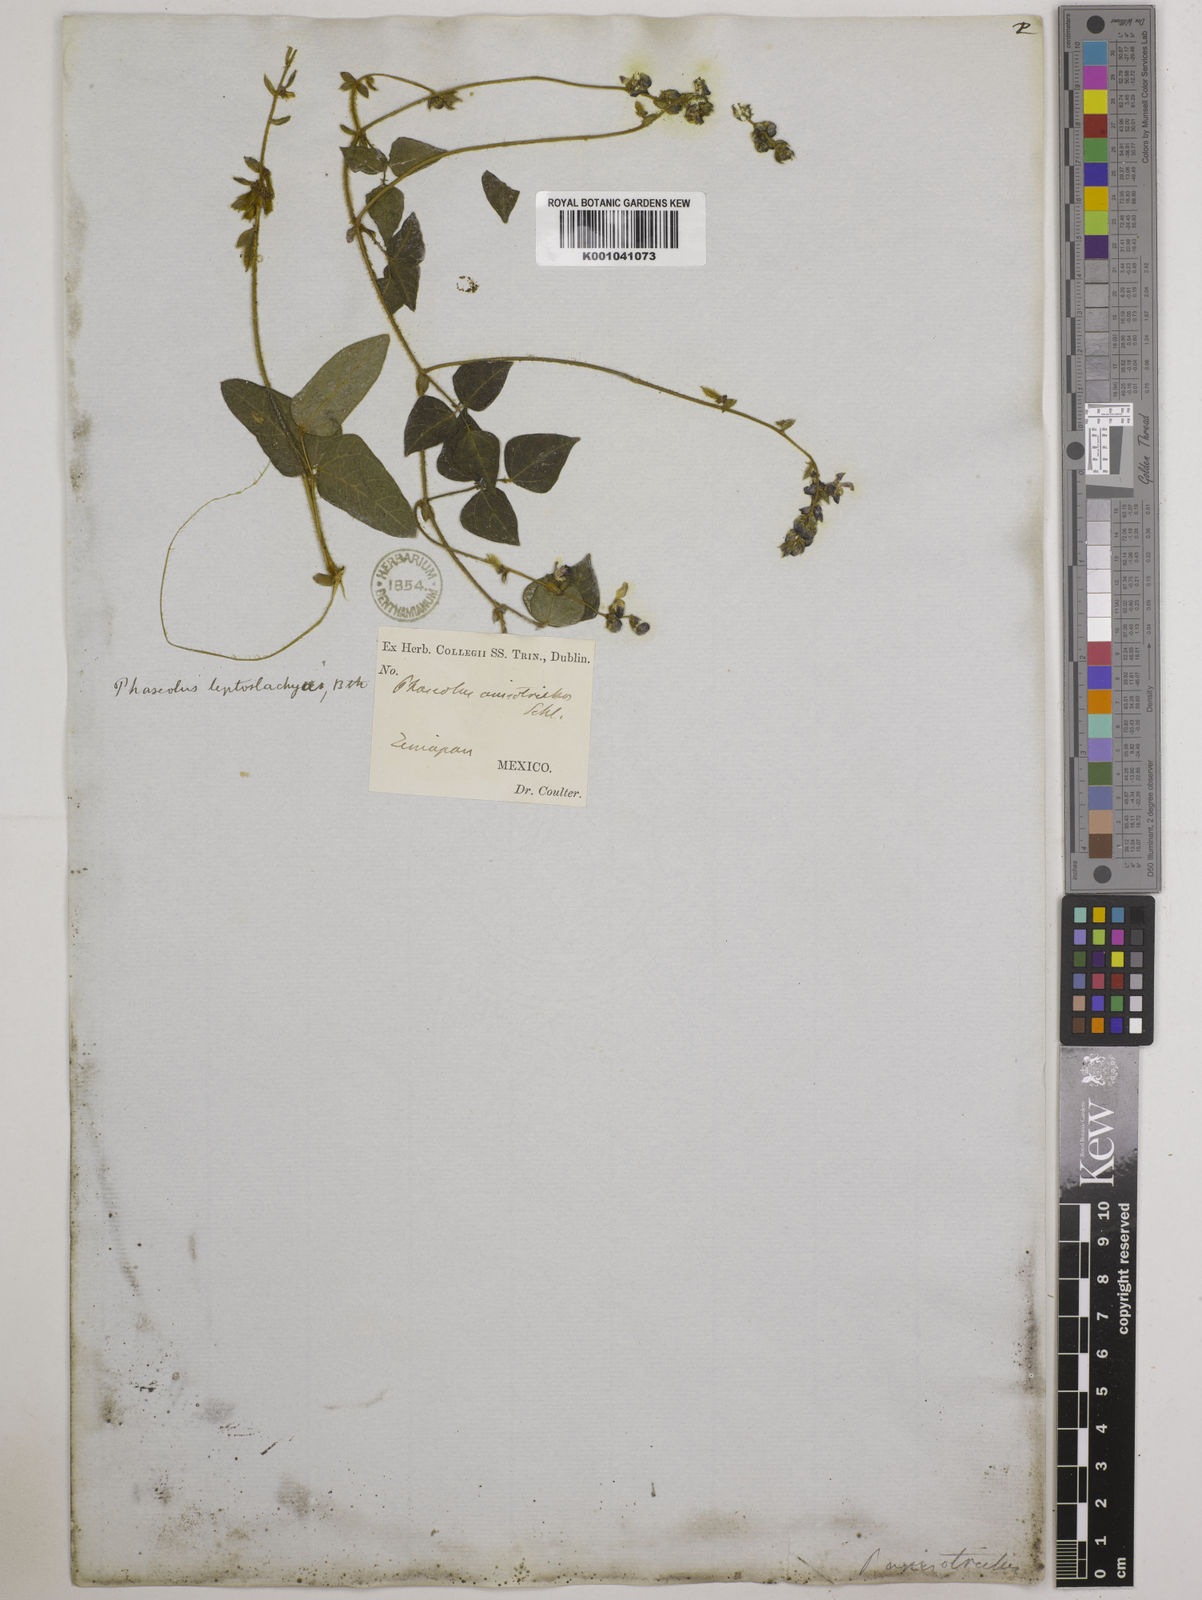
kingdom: Plantae
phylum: Tracheophyta
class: Magnoliopsida
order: Fabales
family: Fabaceae
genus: Phaseolus
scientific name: Phaseolus
